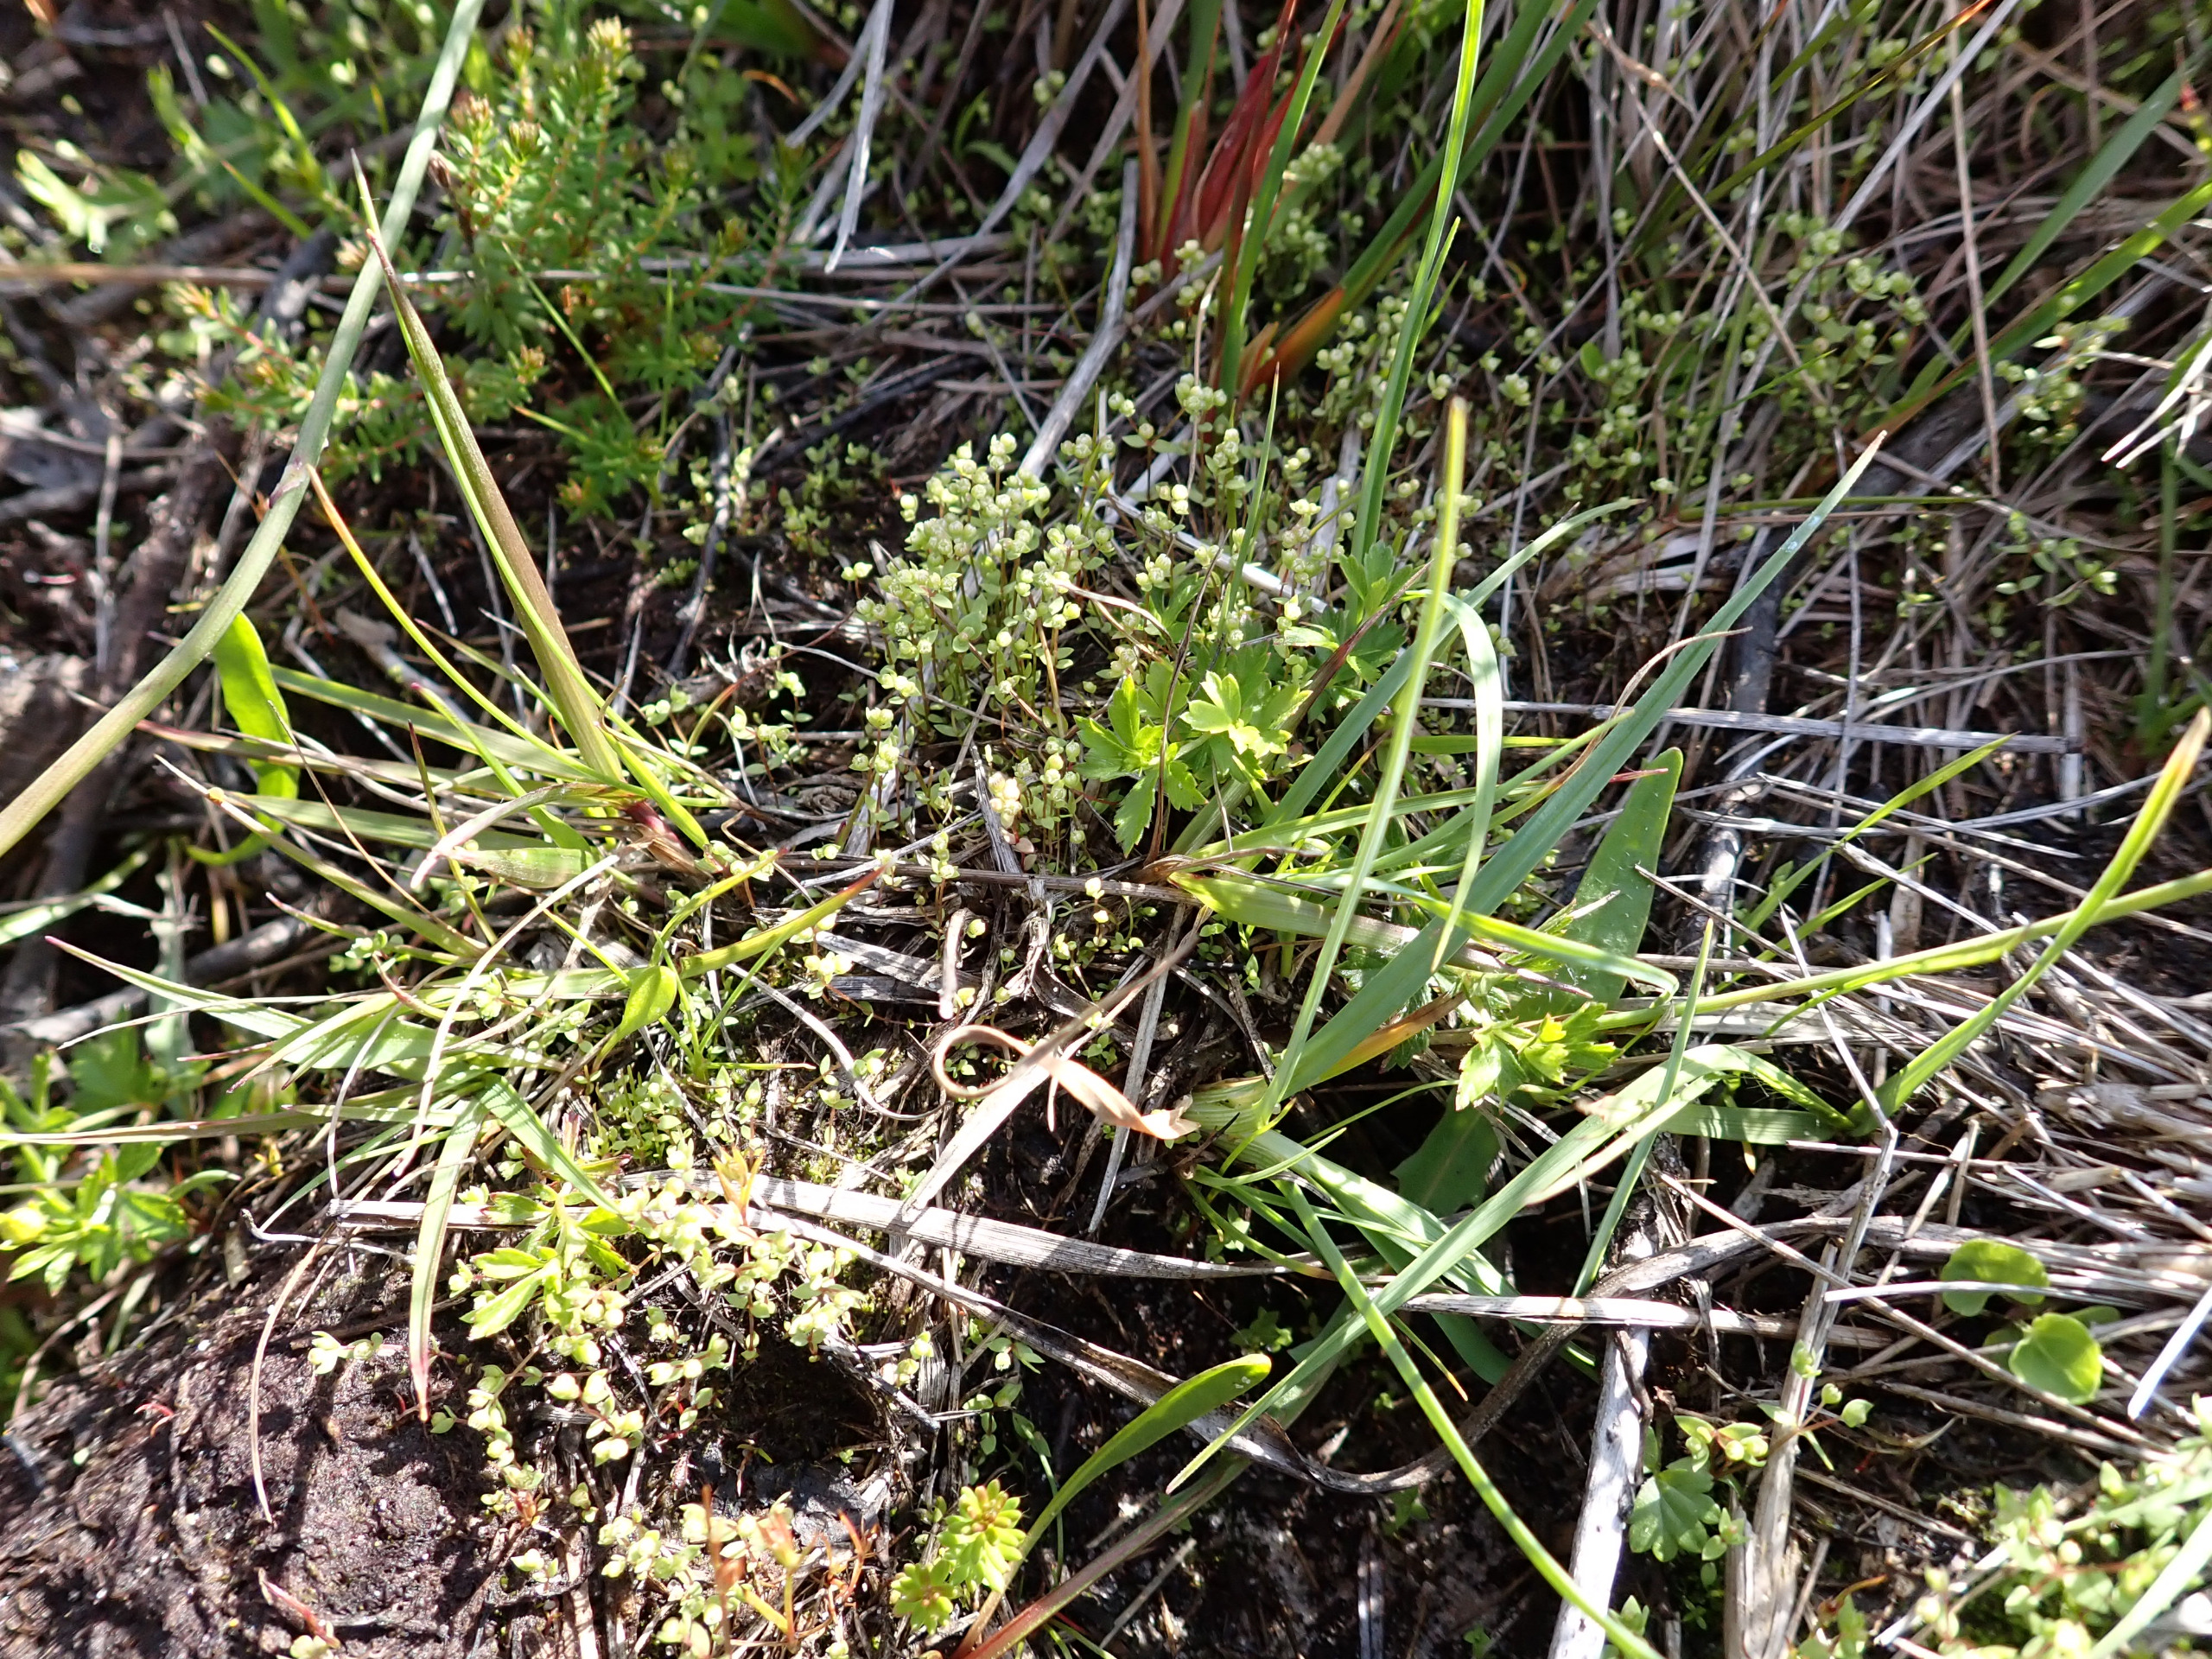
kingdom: Plantae
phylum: Tracheophyta
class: Magnoliopsida
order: Malpighiales
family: Linaceae
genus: Radiola
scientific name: Radiola linoides
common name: Tusindfrø
